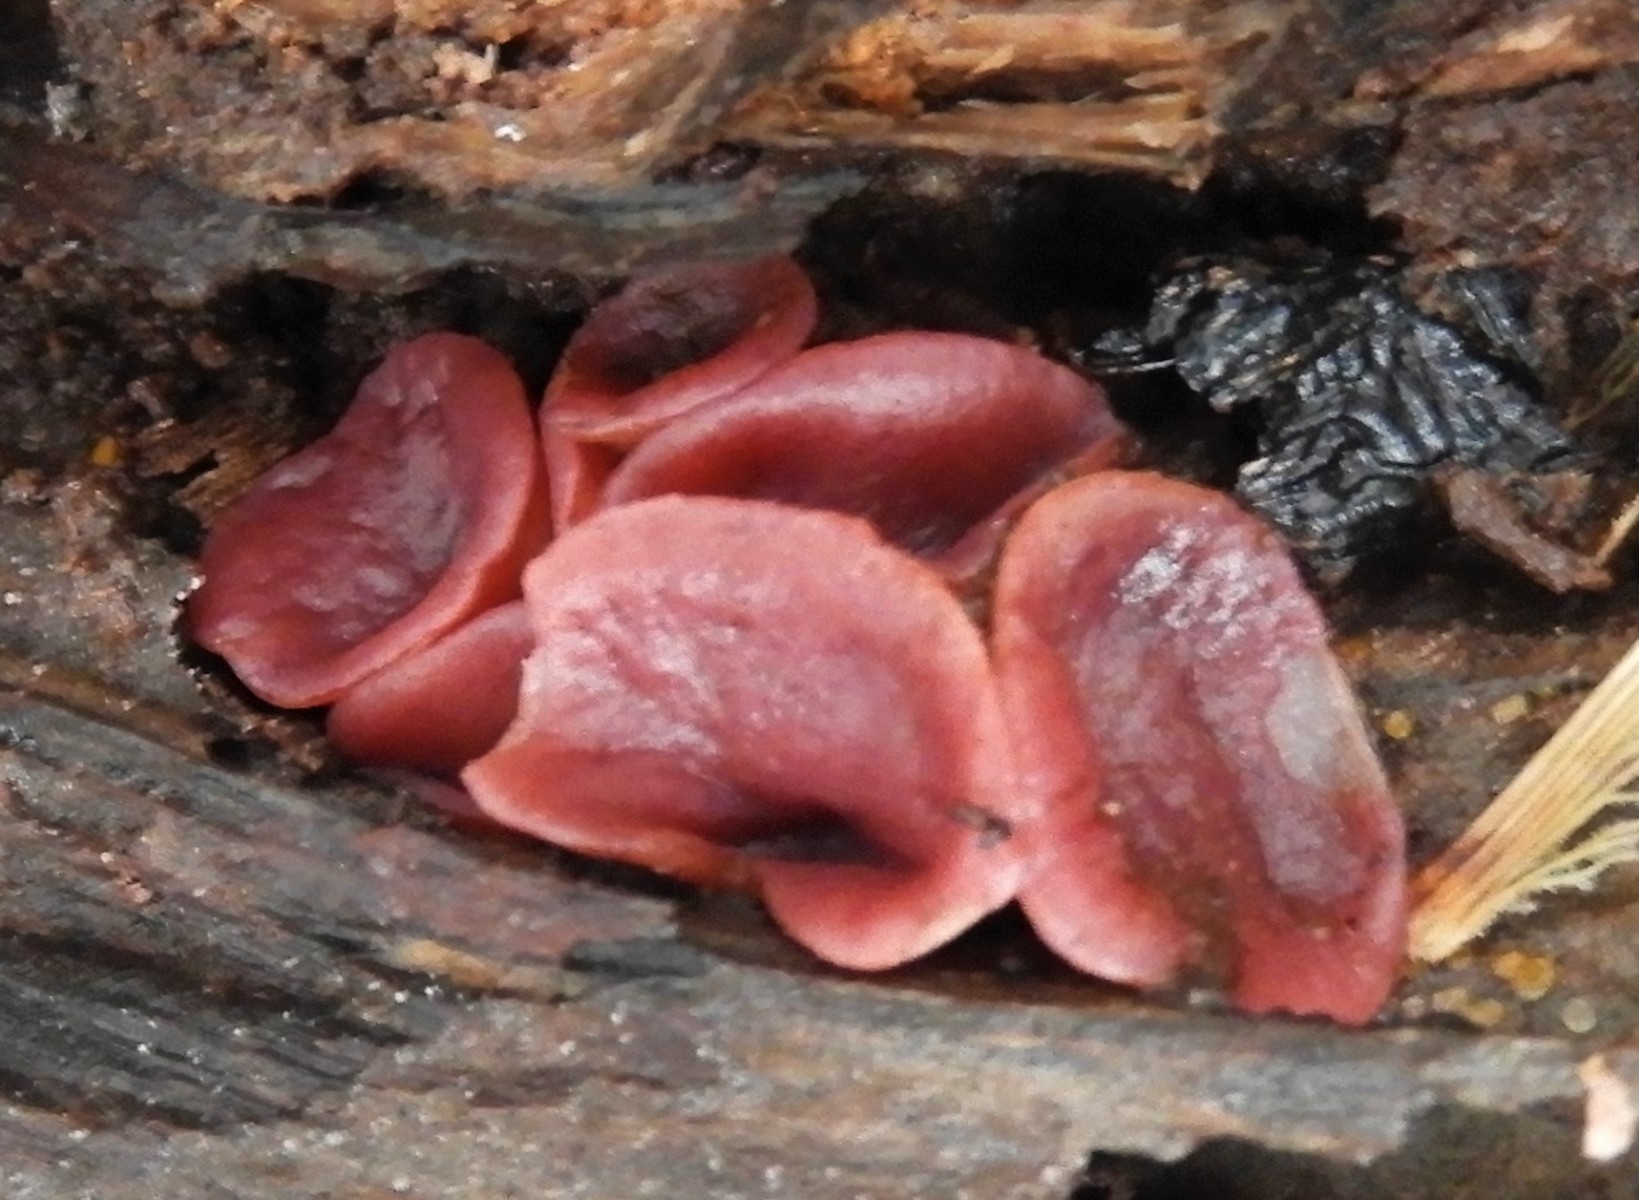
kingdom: Fungi
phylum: Ascomycota
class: Leotiomycetes
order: Helotiales
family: Gelatinodiscaceae
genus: Ascocoryne
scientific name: Ascocoryne cylichnium
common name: stor sejskive
